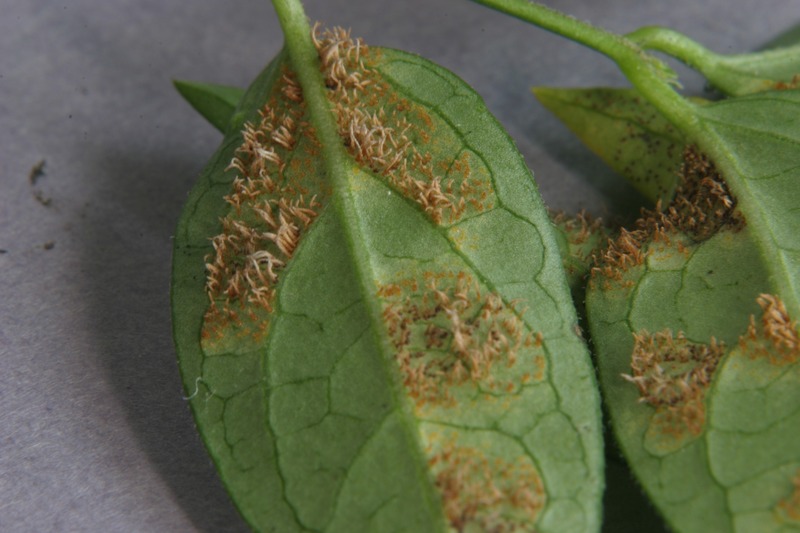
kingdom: Fungi
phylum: Basidiomycota
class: Pucciniomycetes
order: Pucciniales
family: Cronartiaceae
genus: Cronartium
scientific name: Cronartium pini
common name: Scots pine blister rust
